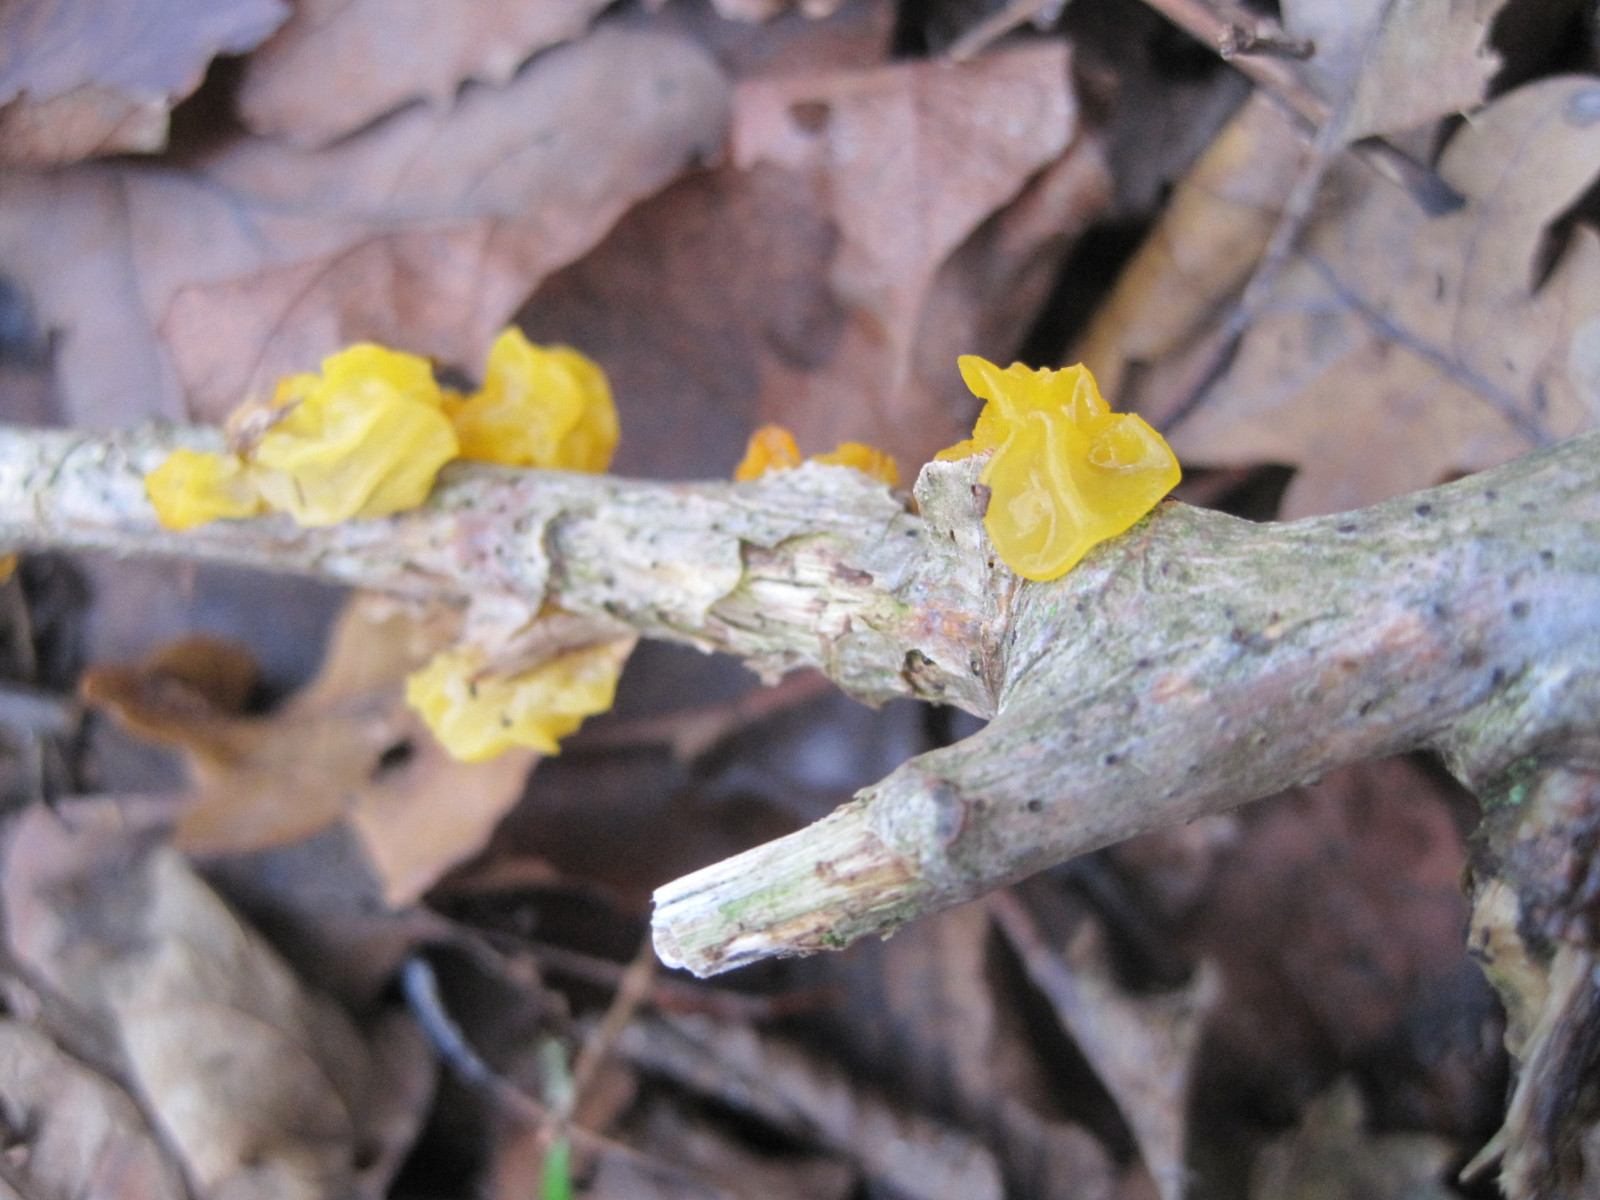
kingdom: Fungi
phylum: Basidiomycota
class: Tremellomycetes
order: Tremellales
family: Tremellaceae
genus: Tremella
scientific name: Tremella mesenterica
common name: gul bævresvamp
